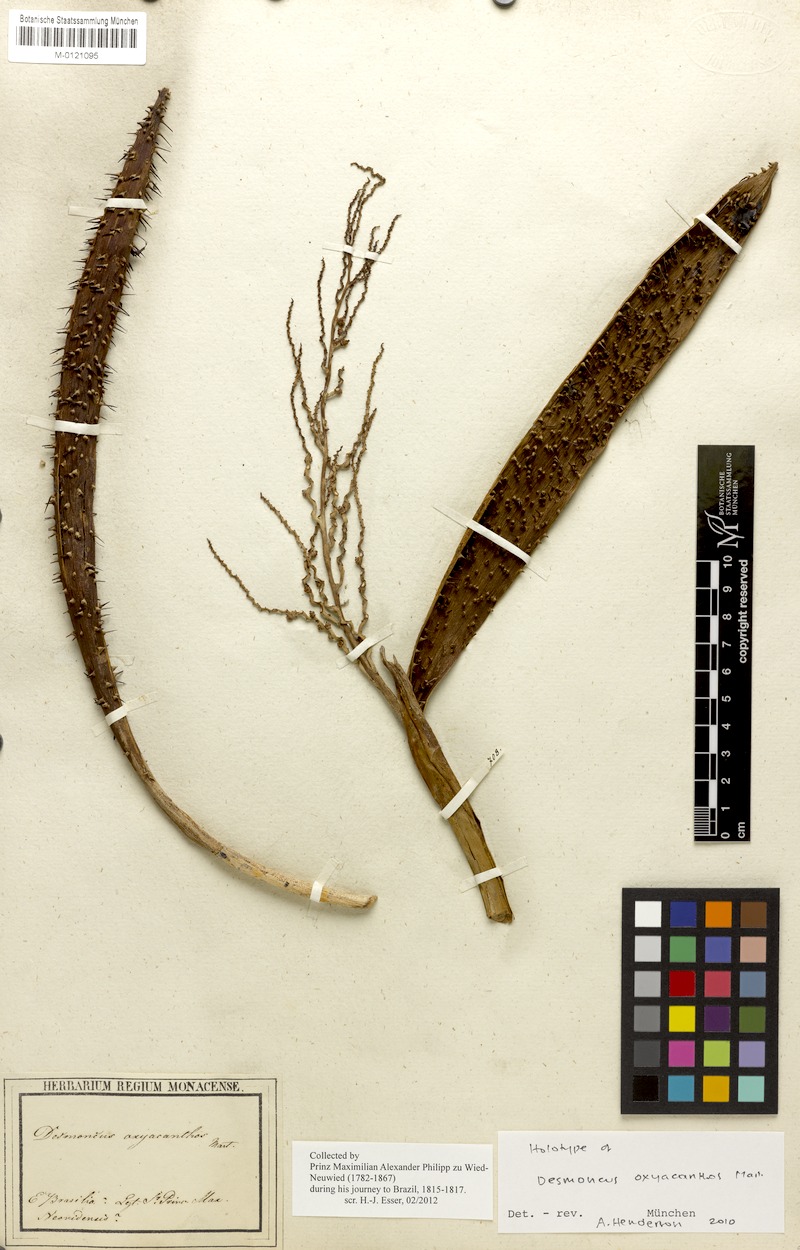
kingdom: Plantae
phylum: Tracheophyta
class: Liliopsida
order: Arecales
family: Arecaceae
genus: Desmoncus
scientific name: Desmoncus polyacanthos
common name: Suriname bramble palm
